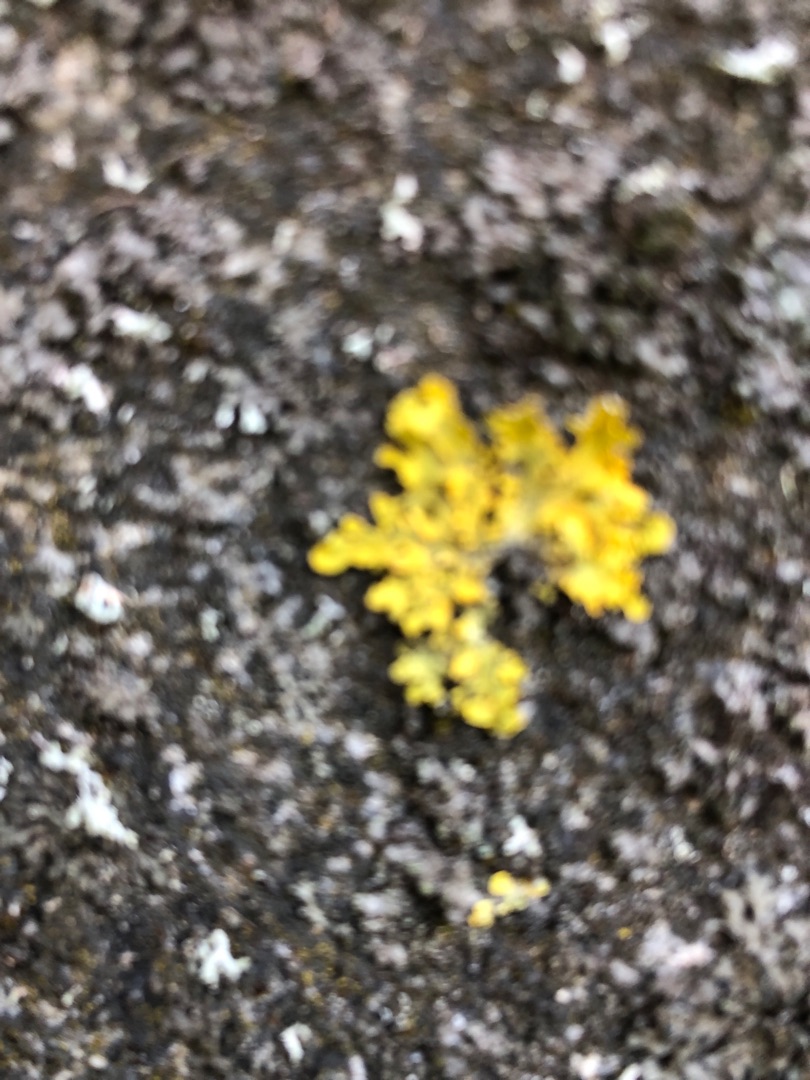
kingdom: Fungi
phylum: Ascomycota
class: Lecanoromycetes
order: Teloschistales
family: Teloschistaceae
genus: Xanthoria
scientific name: Xanthoria parietina
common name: Almindelig væggelav
